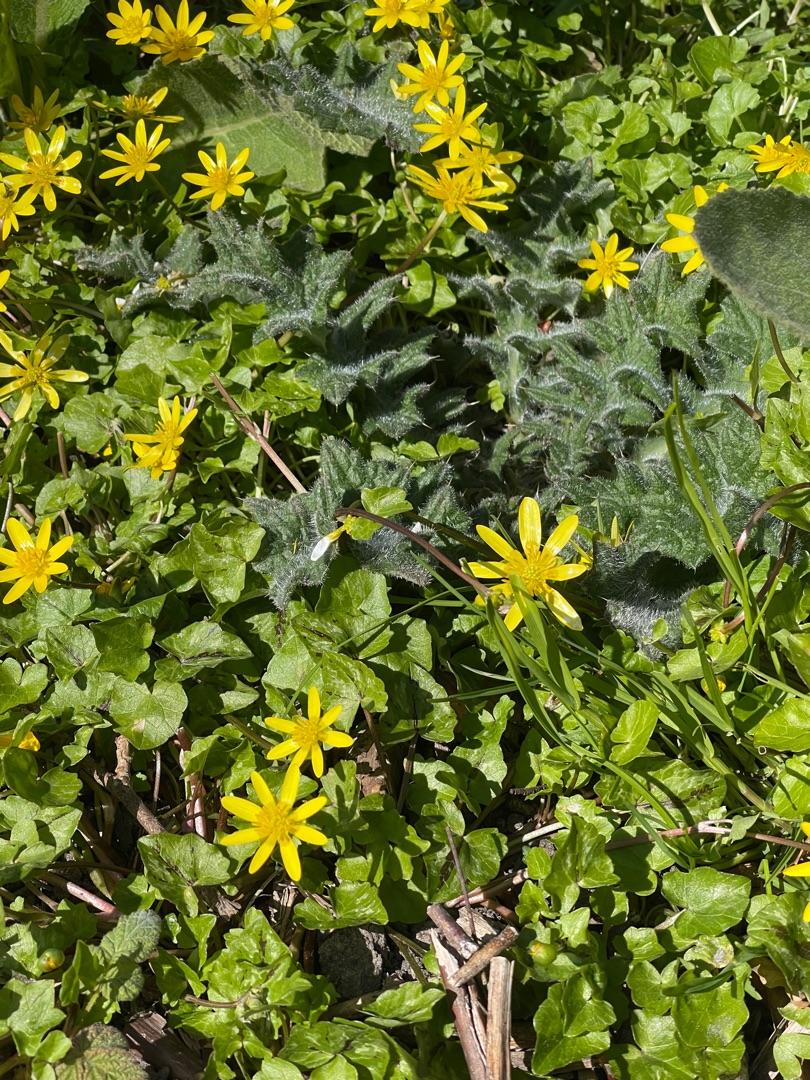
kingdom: Plantae
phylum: Tracheophyta
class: Magnoliopsida
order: Ranunculales
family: Ranunculaceae
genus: Ficaria
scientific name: Ficaria verna
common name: Vorterod
